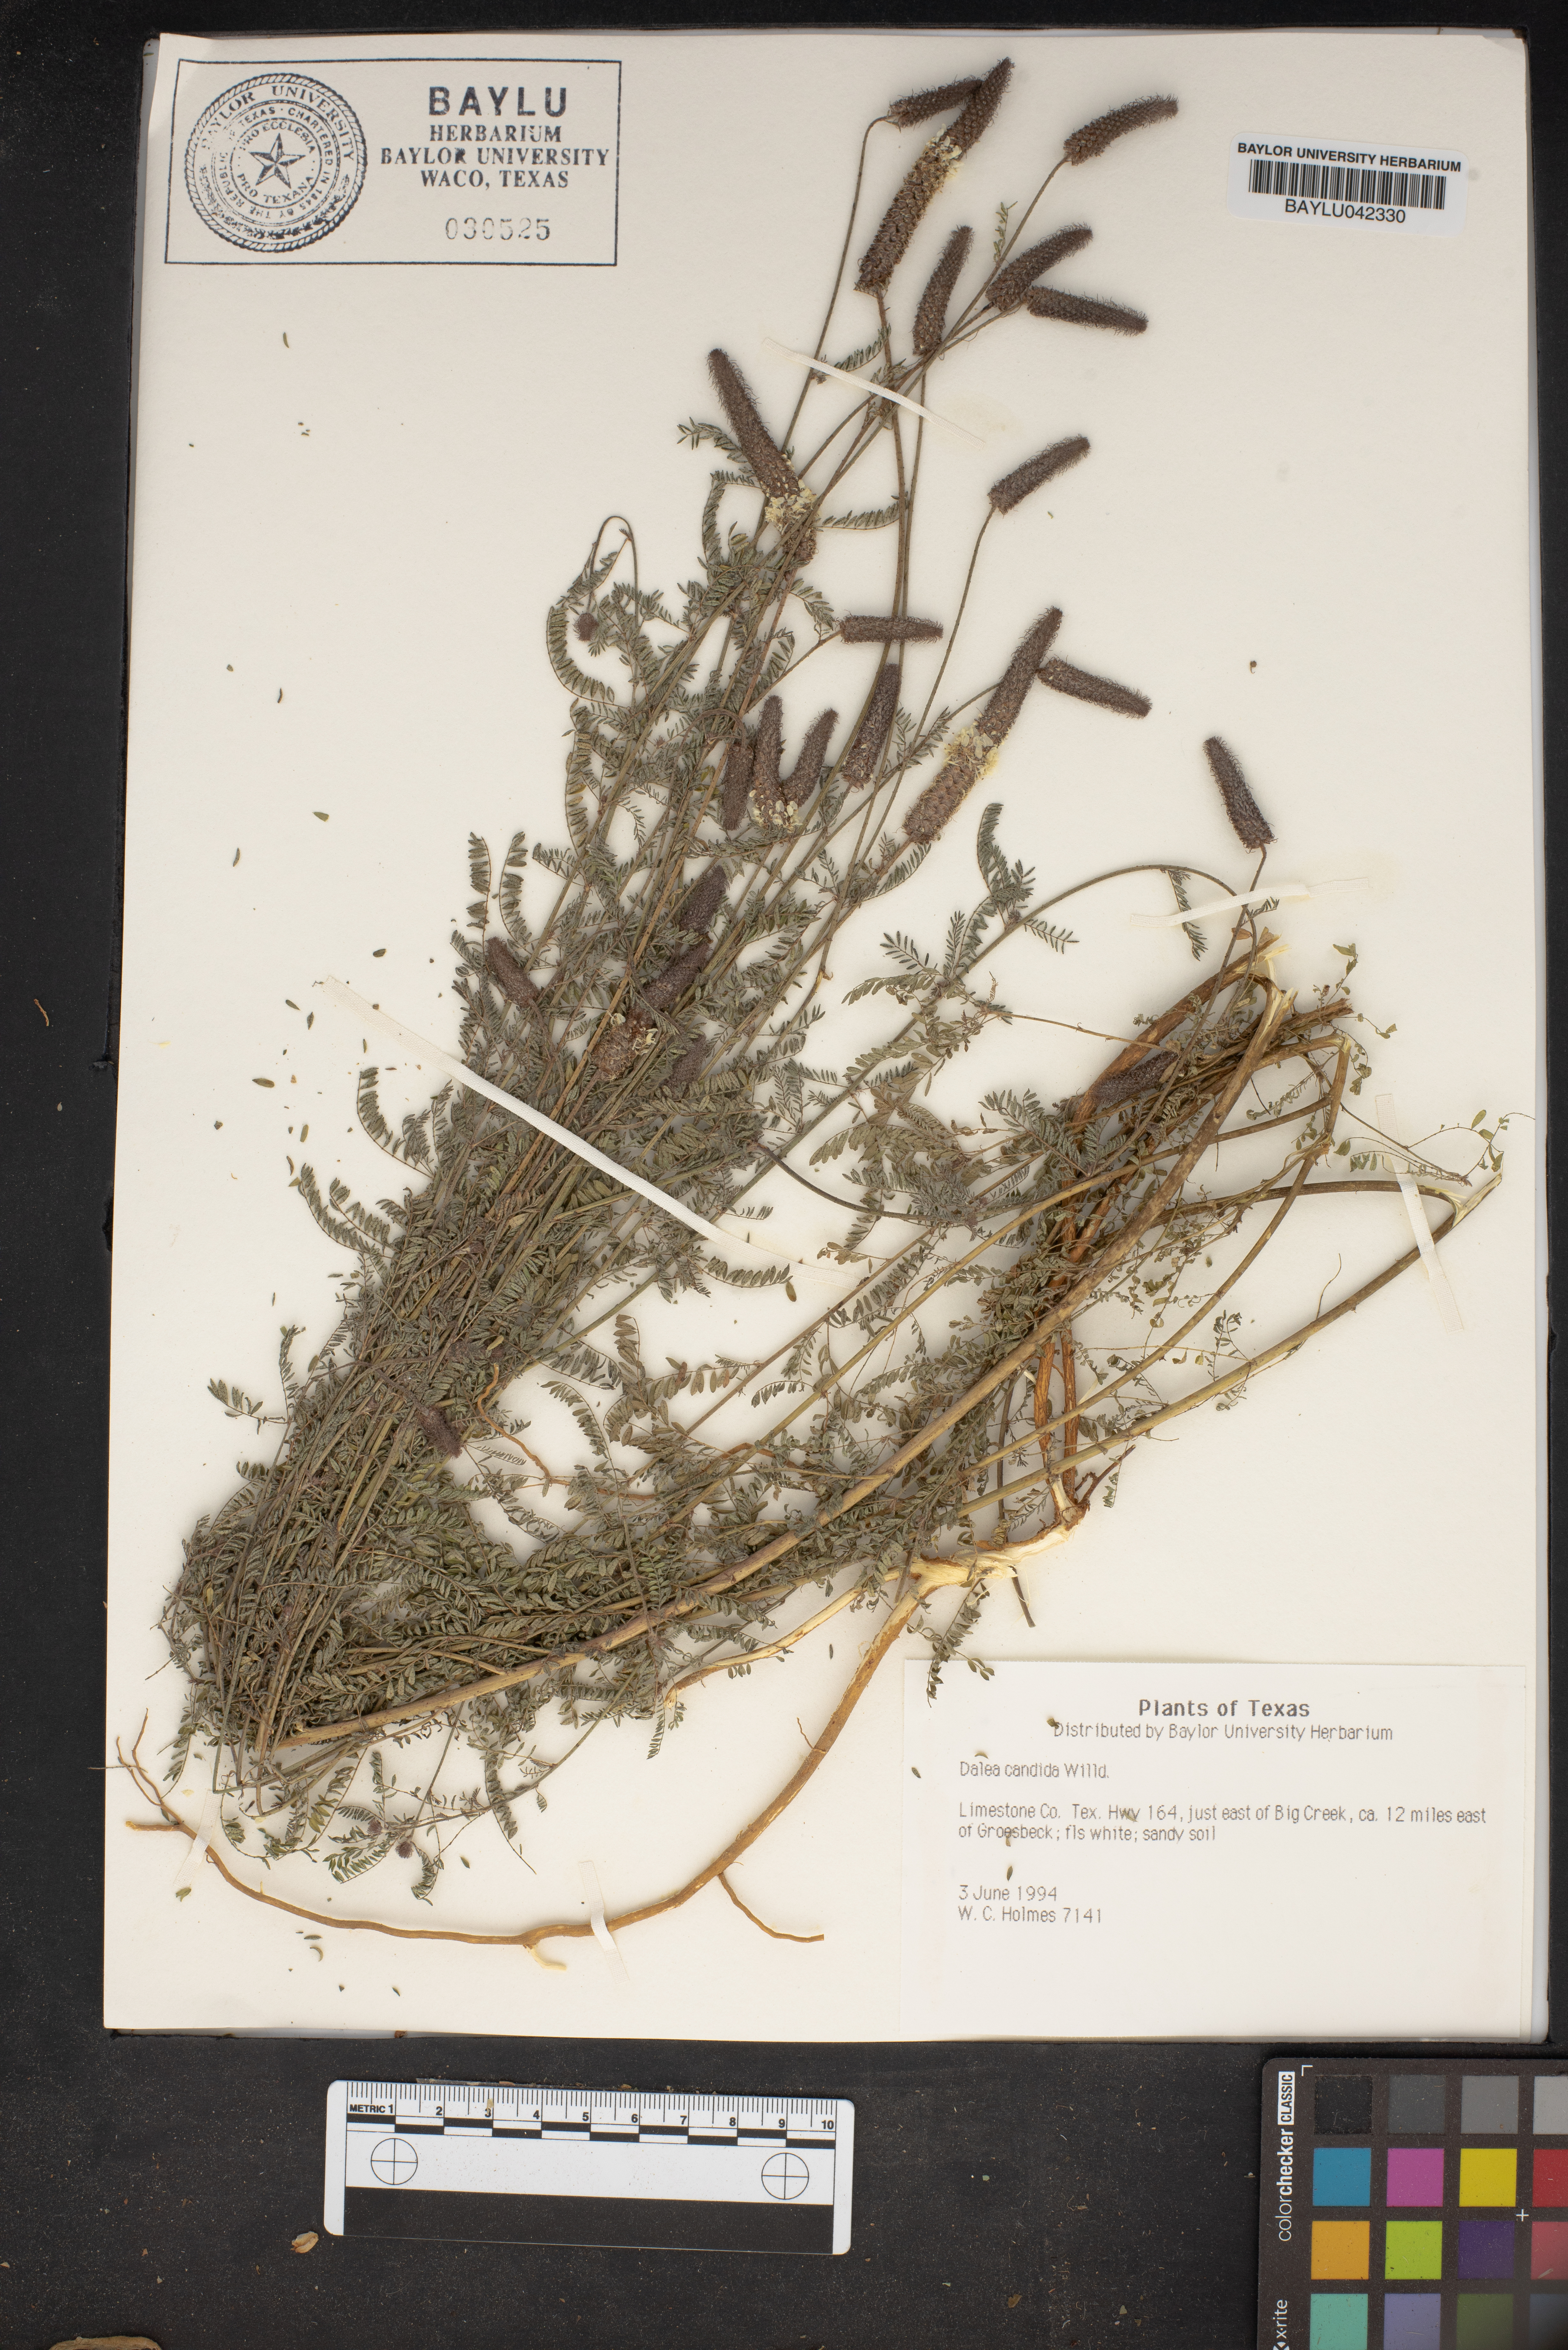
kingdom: Plantae
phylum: Tracheophyta
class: Magnoliopsida
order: Fabales
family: Fabaceae
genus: Dalea
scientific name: Dalea candida
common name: White prairie-clover
